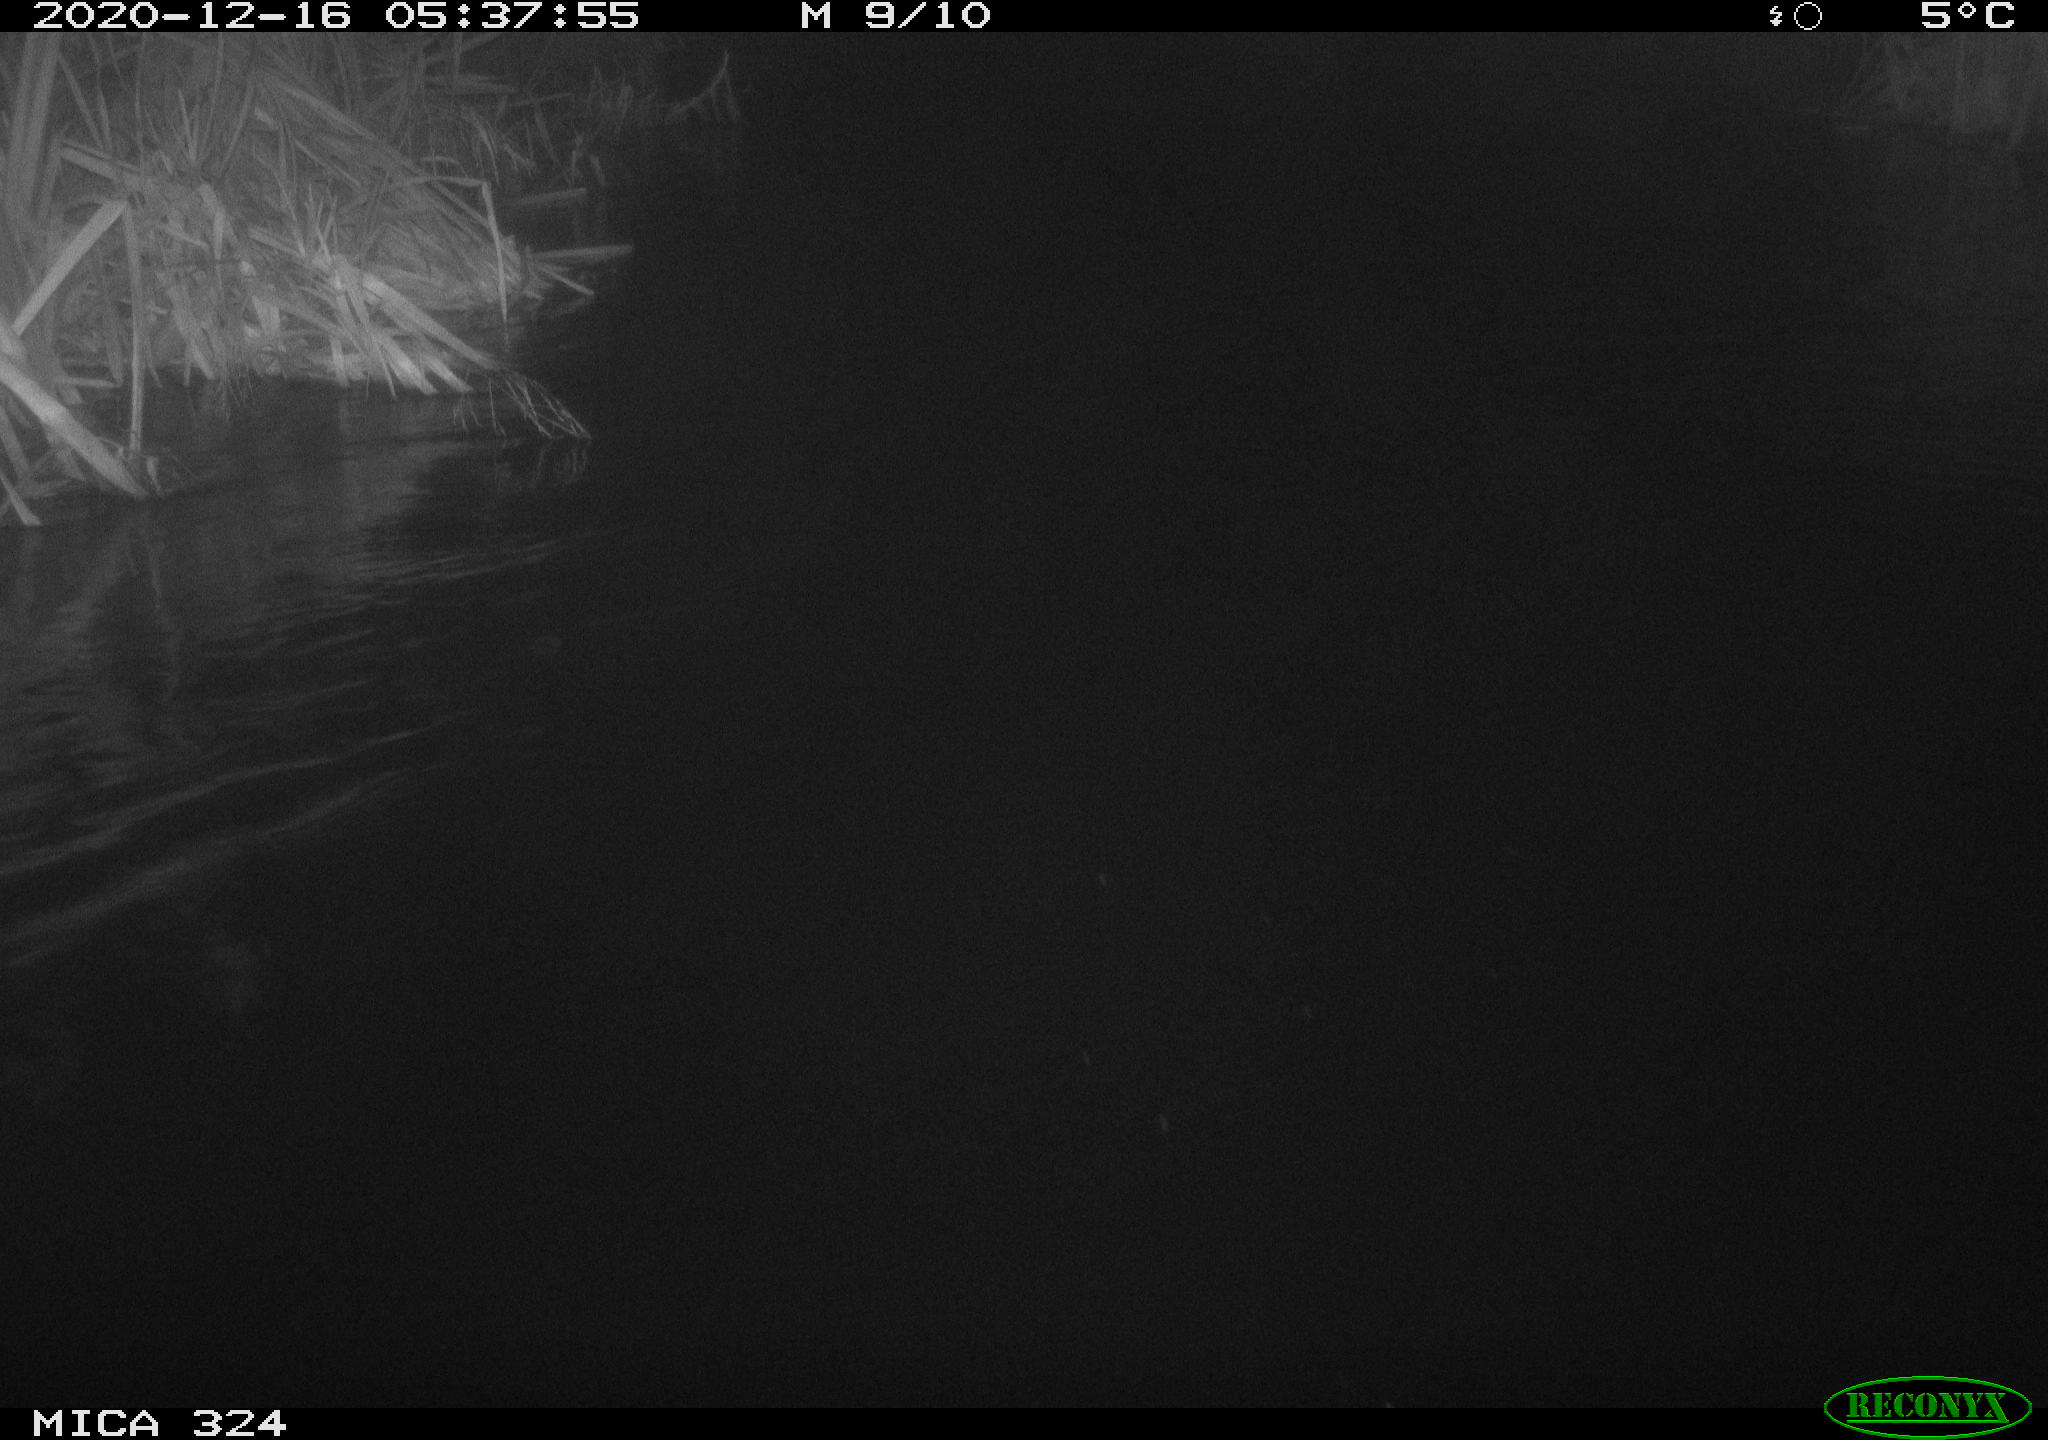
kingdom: Animalia
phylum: Chordata
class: Mammalia
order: Rodentia
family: Cricetidae
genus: Ondatra
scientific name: Ondatra zibethicus
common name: Muskrat
